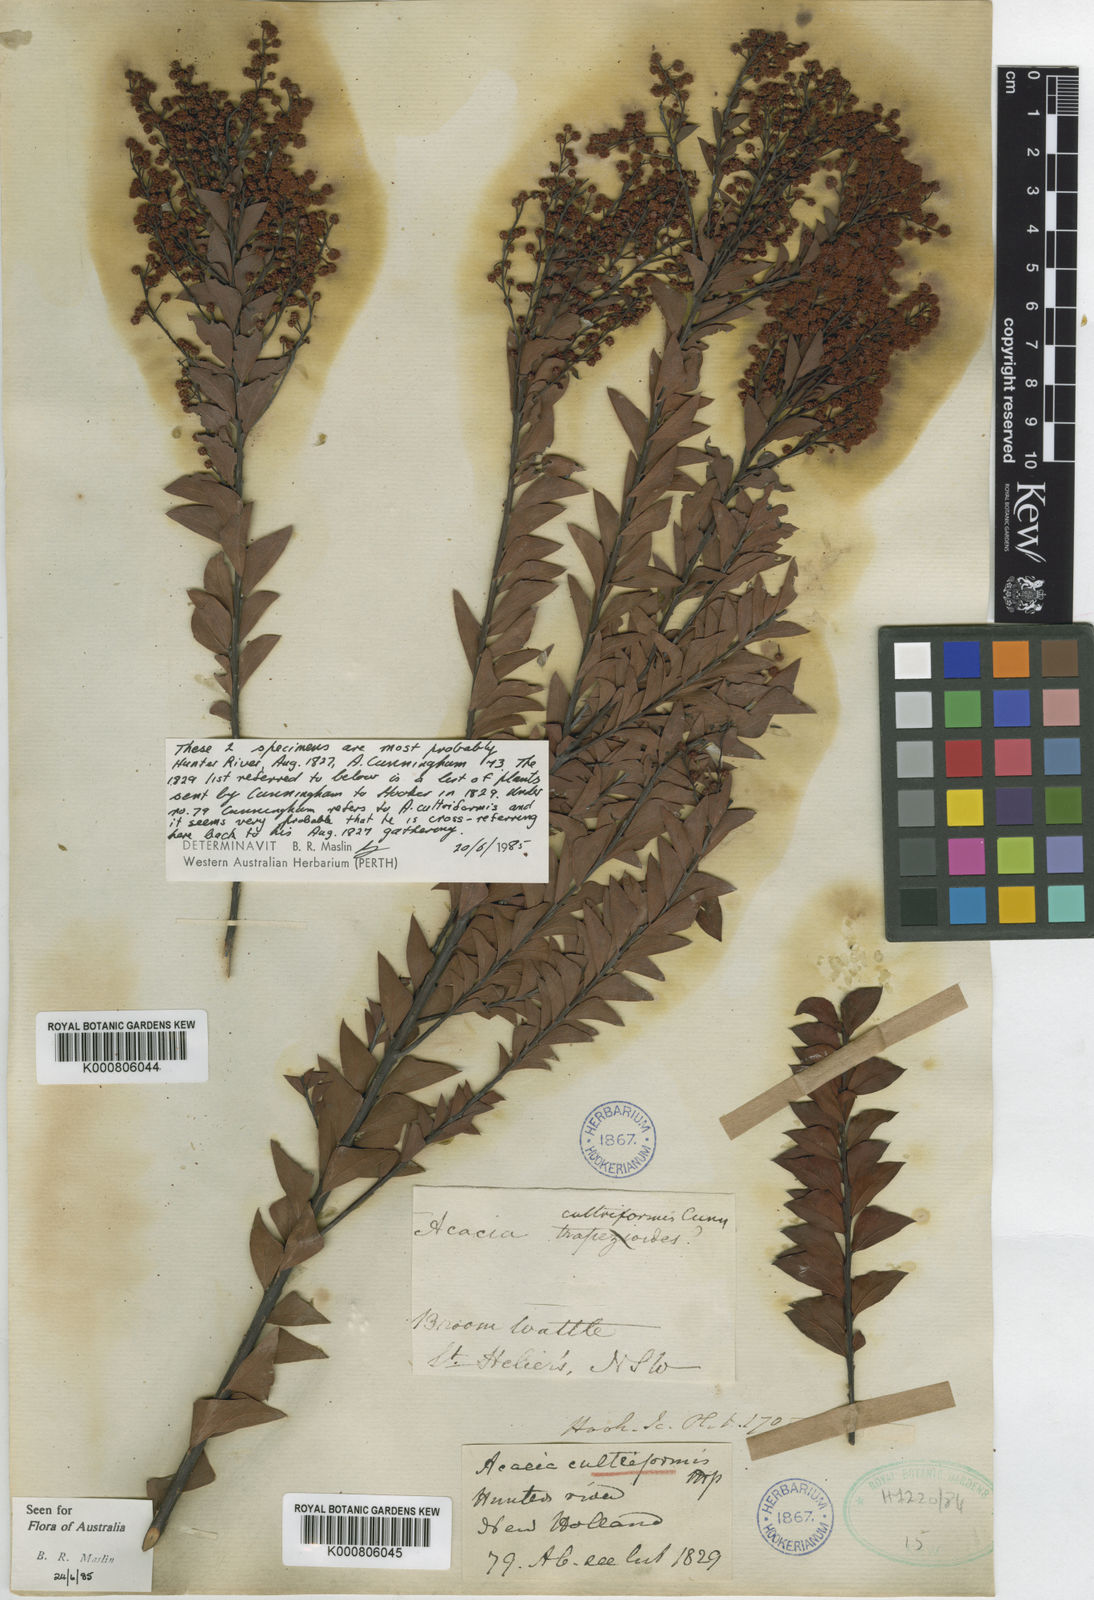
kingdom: Plantae
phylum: Tracheophyta
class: Magnoliopsida
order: Fabales
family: Fabaceae
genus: Acacia
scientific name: Acacia
